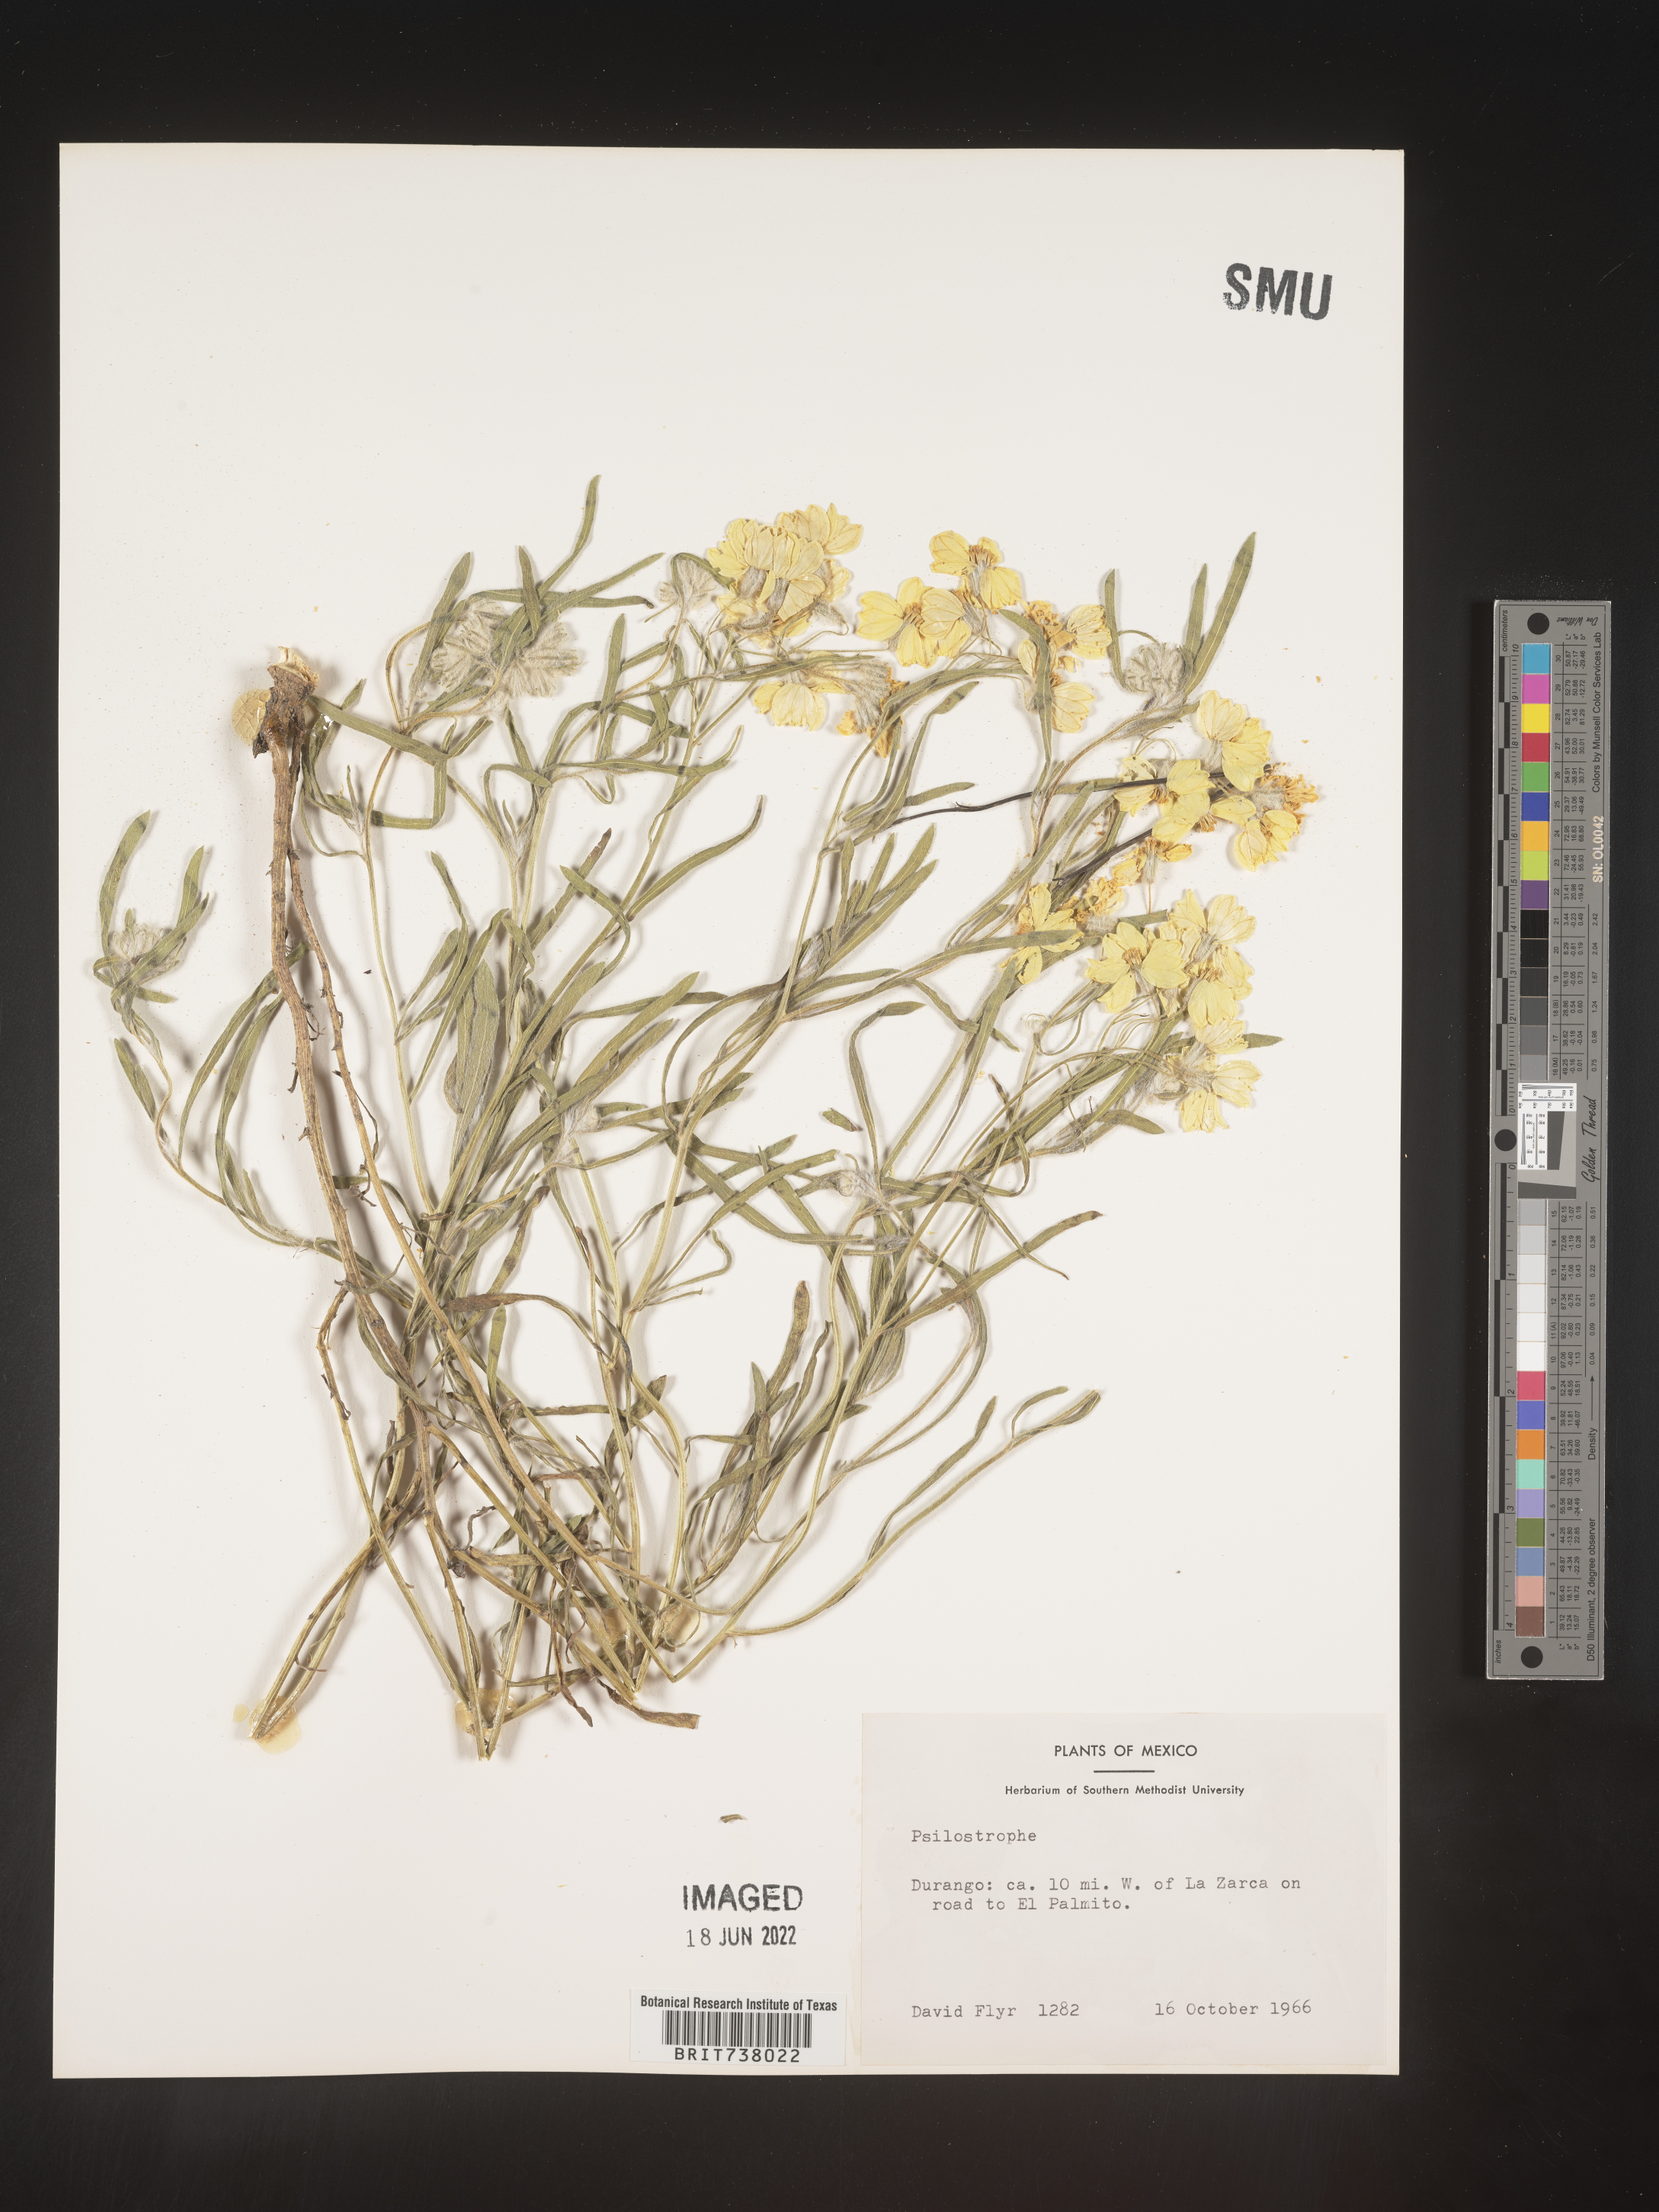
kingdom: Plantae
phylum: Tracheophyta
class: Magnoliopsida
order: Asterales
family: Asteraceae
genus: Psilostrophe
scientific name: Psilostrophe
